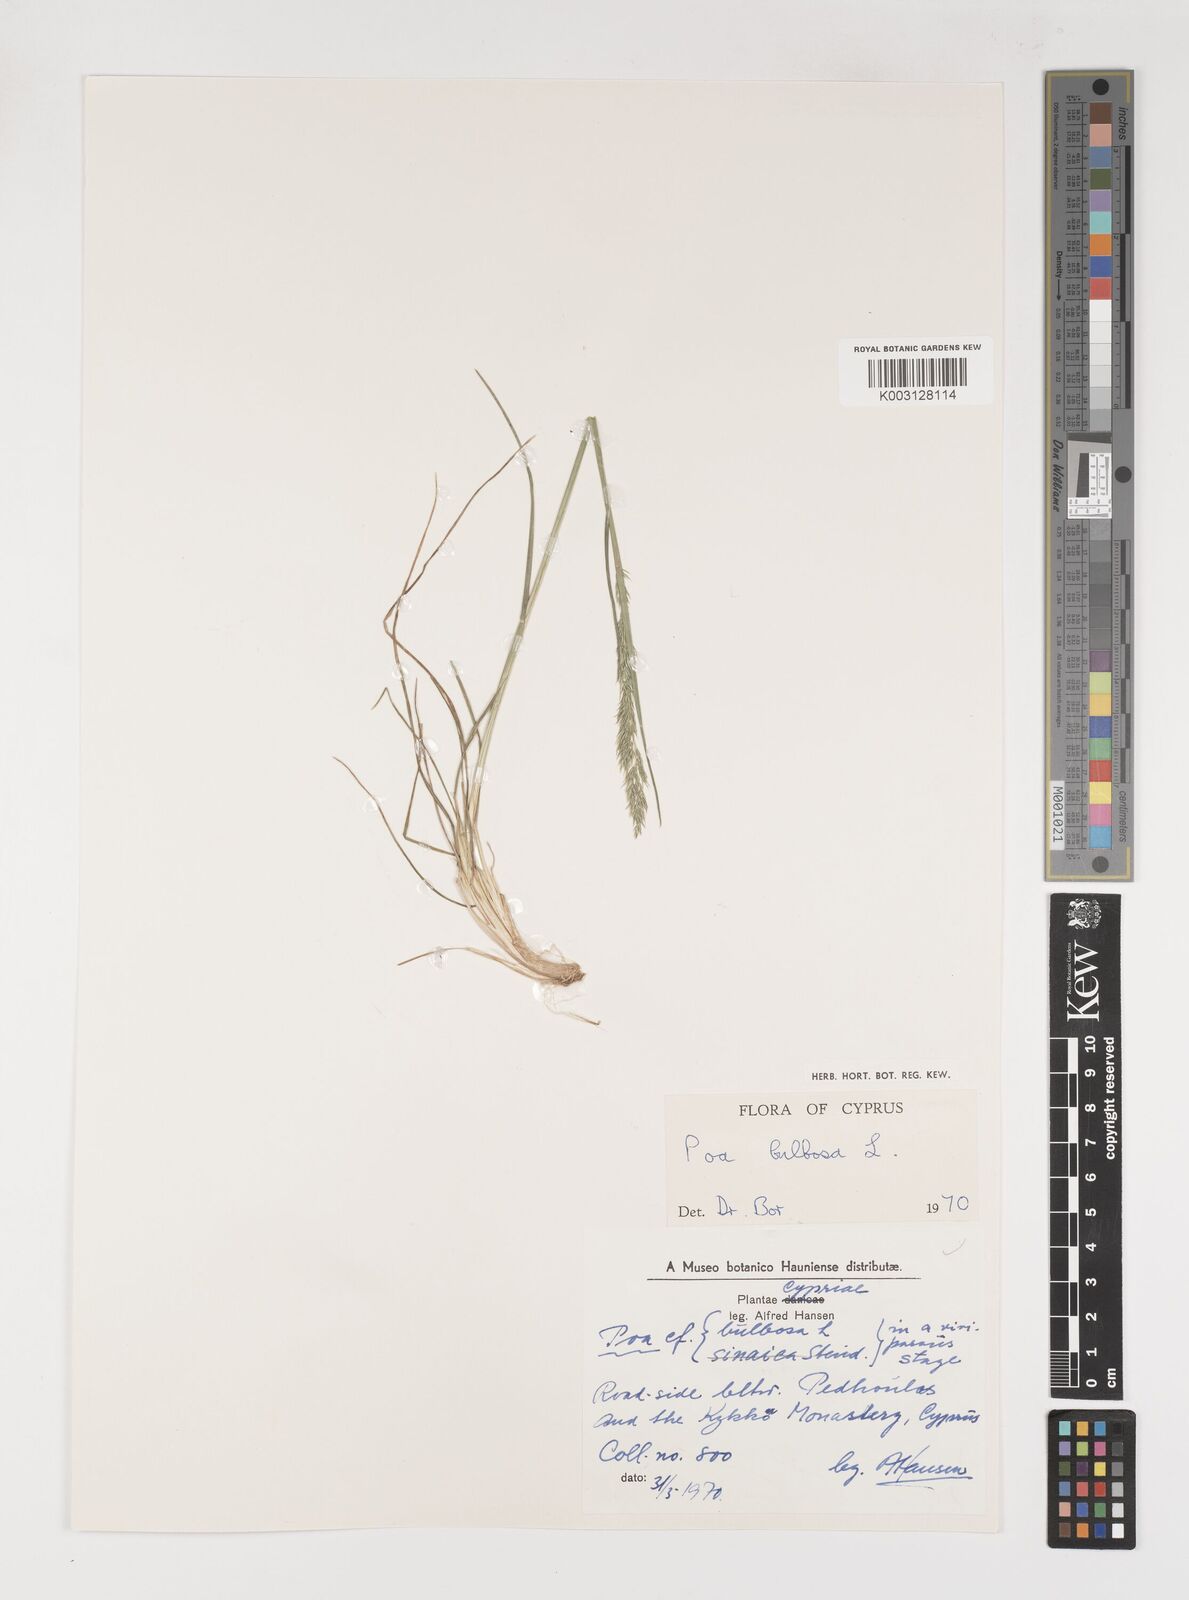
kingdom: Plantae
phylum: Tracheophyta
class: Liliopsida
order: Poales
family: Poaceae
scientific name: Poaceae
